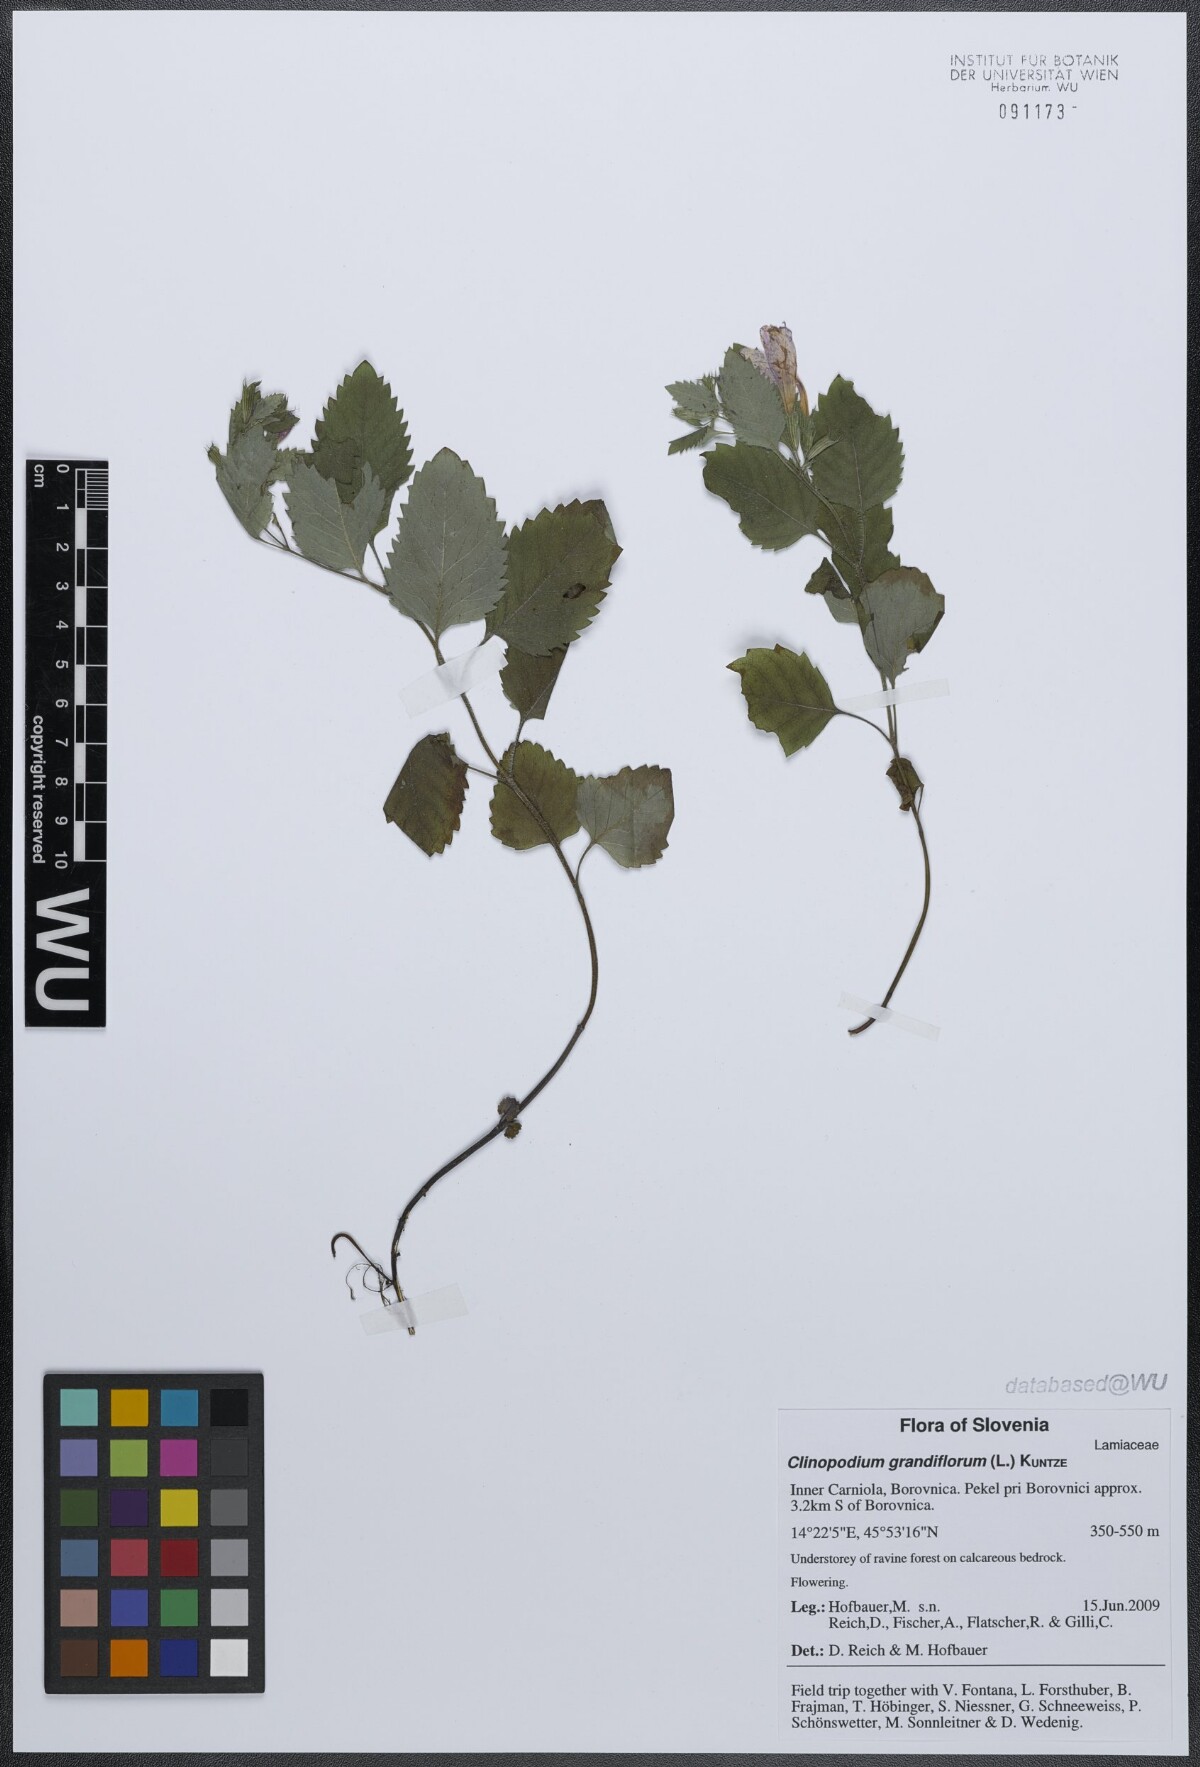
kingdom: Plantae
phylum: Tracheophyta
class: Magnoliopsida
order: Lamiales
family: Lamiaceae
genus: Clinopodium
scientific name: Clinopodium grandiflorum
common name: Greater calamint
